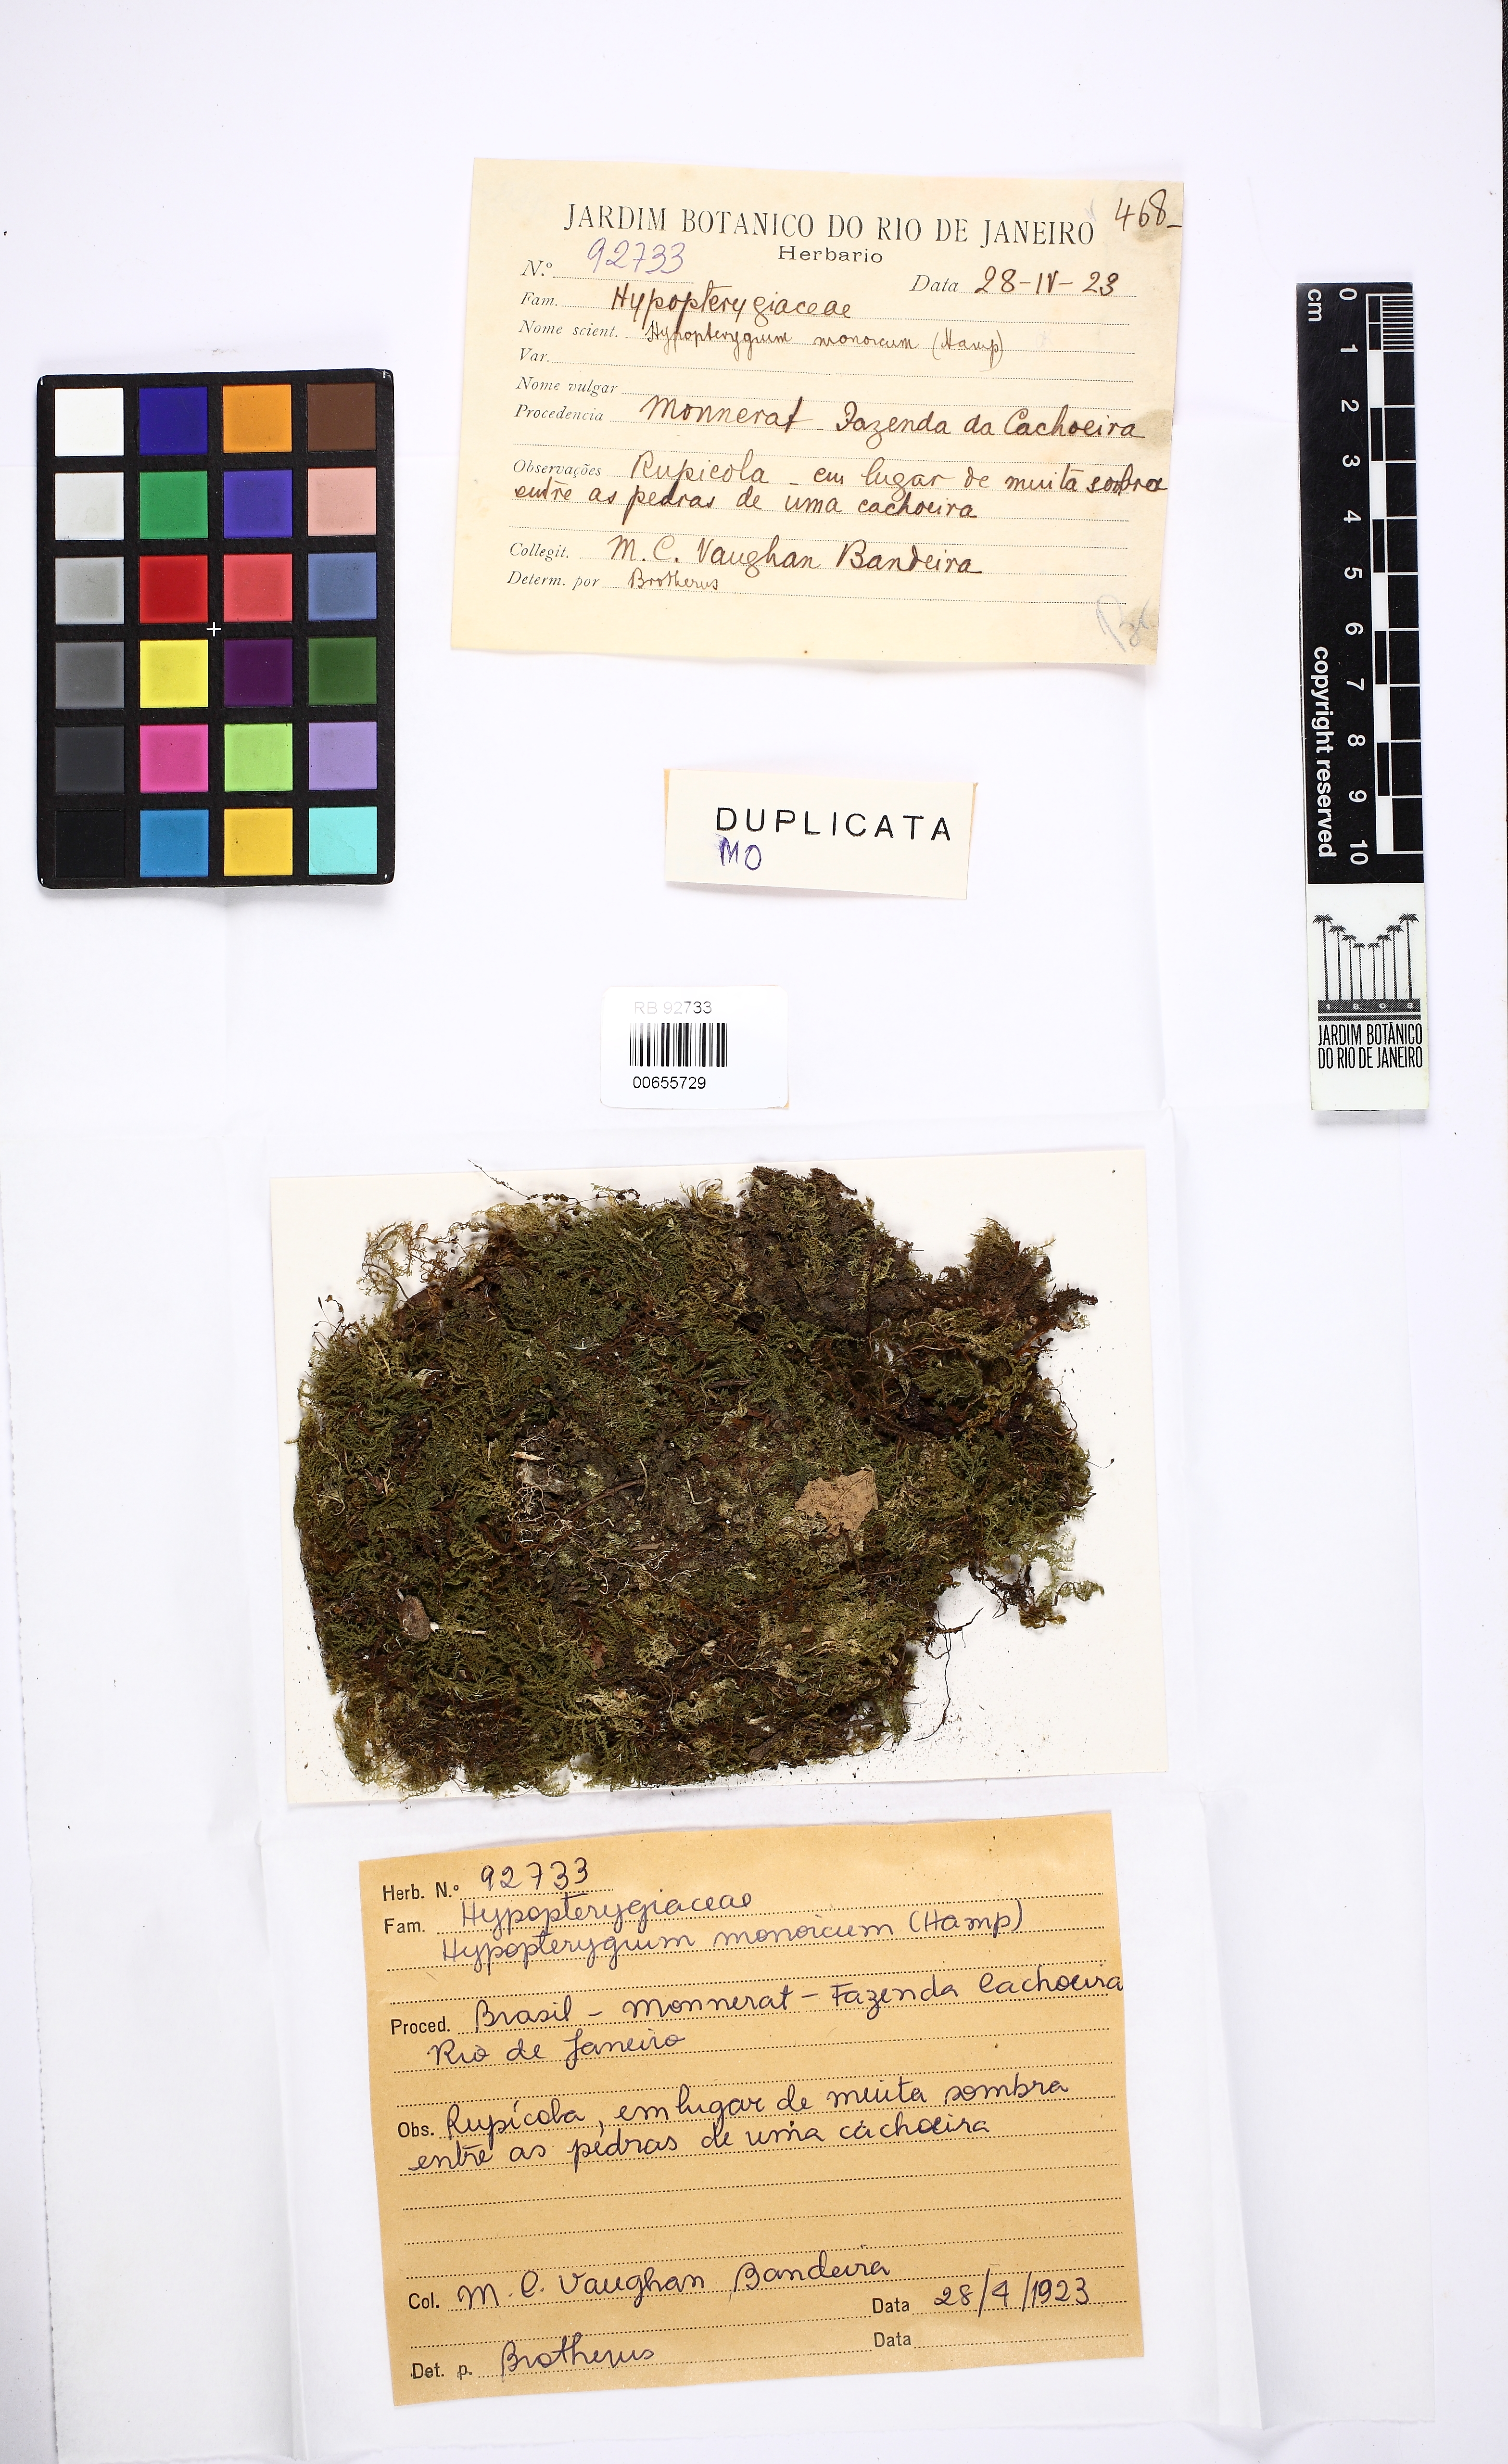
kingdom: Plantae
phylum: Bryophyta
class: Bryopsida
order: Hypopterygiales
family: Hypopterygiaceae
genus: Hypopterygium
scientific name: Hypopterygium tamarisci
